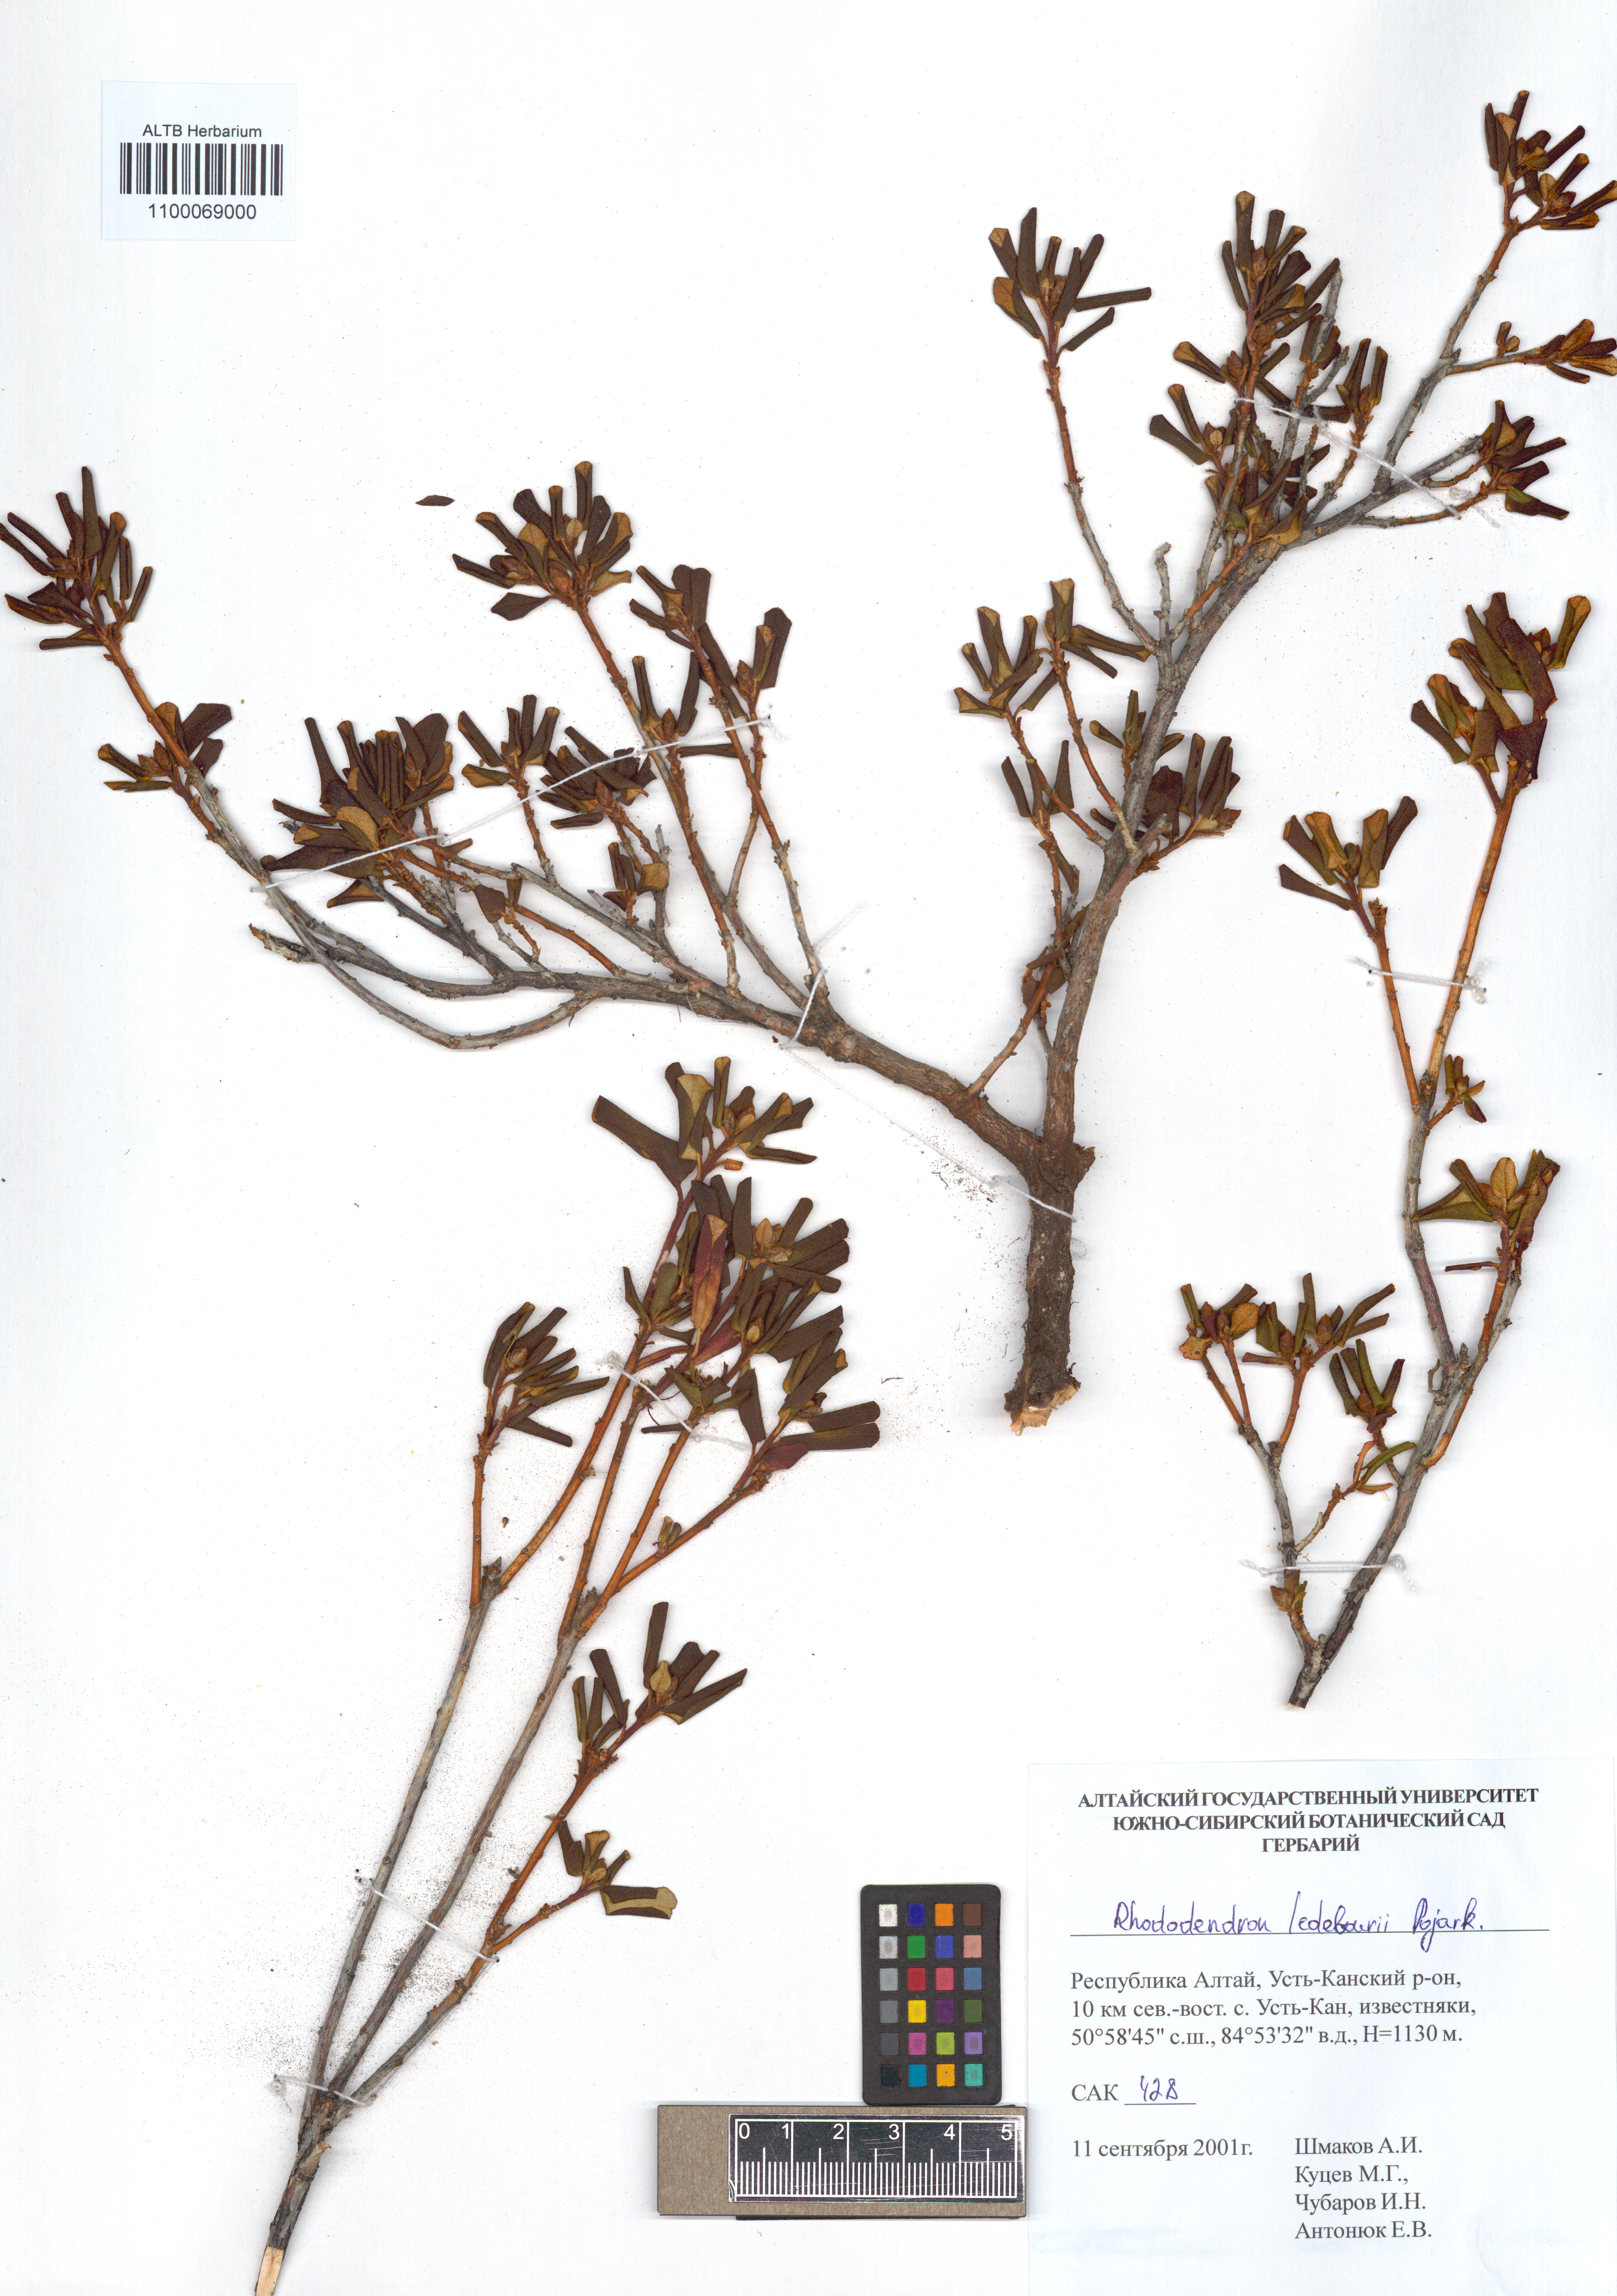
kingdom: Plantae
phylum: Tracheophyta
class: Magnoliopsida
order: Ericales
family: Ericaceae
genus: Rhododendron
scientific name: Rhododendron dauricum
